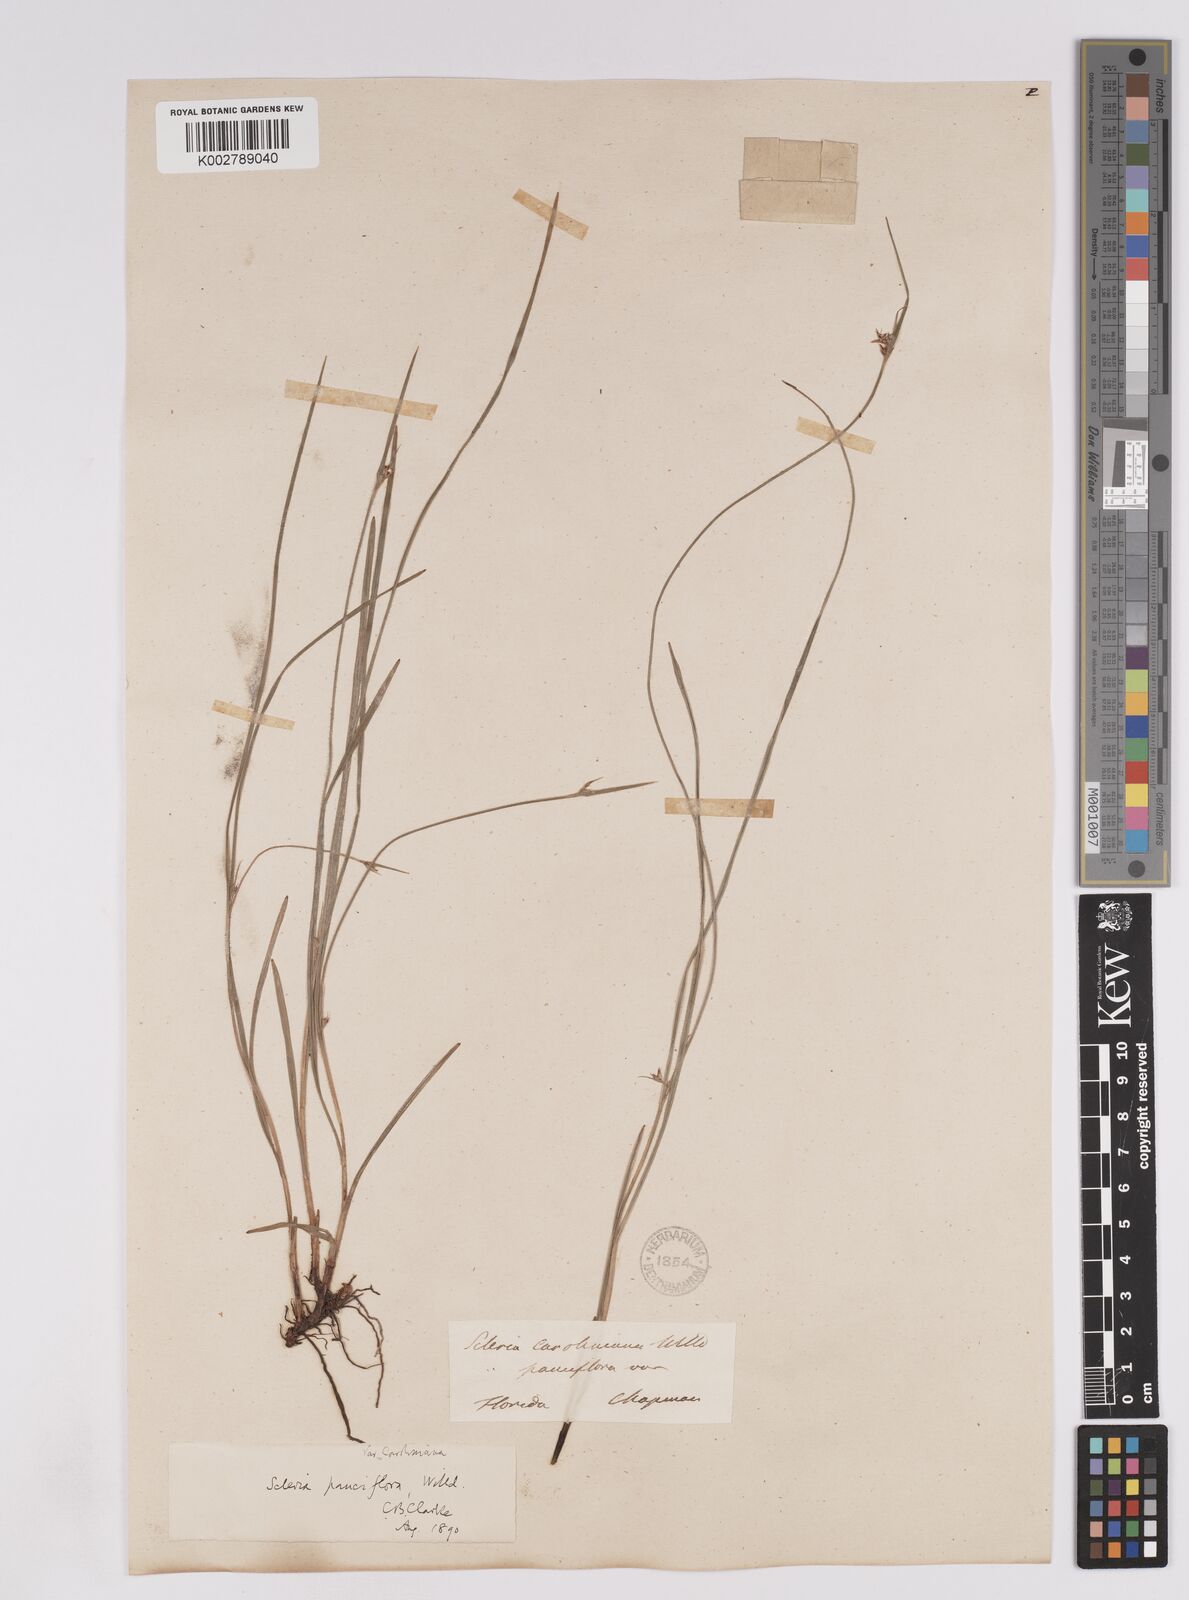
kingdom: Plantae
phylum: Tracheophyta
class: Liliopsida
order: Poales
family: Cyperaceae
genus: Scleria
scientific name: Scleria pauciflora
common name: Few-flowered nutrush
